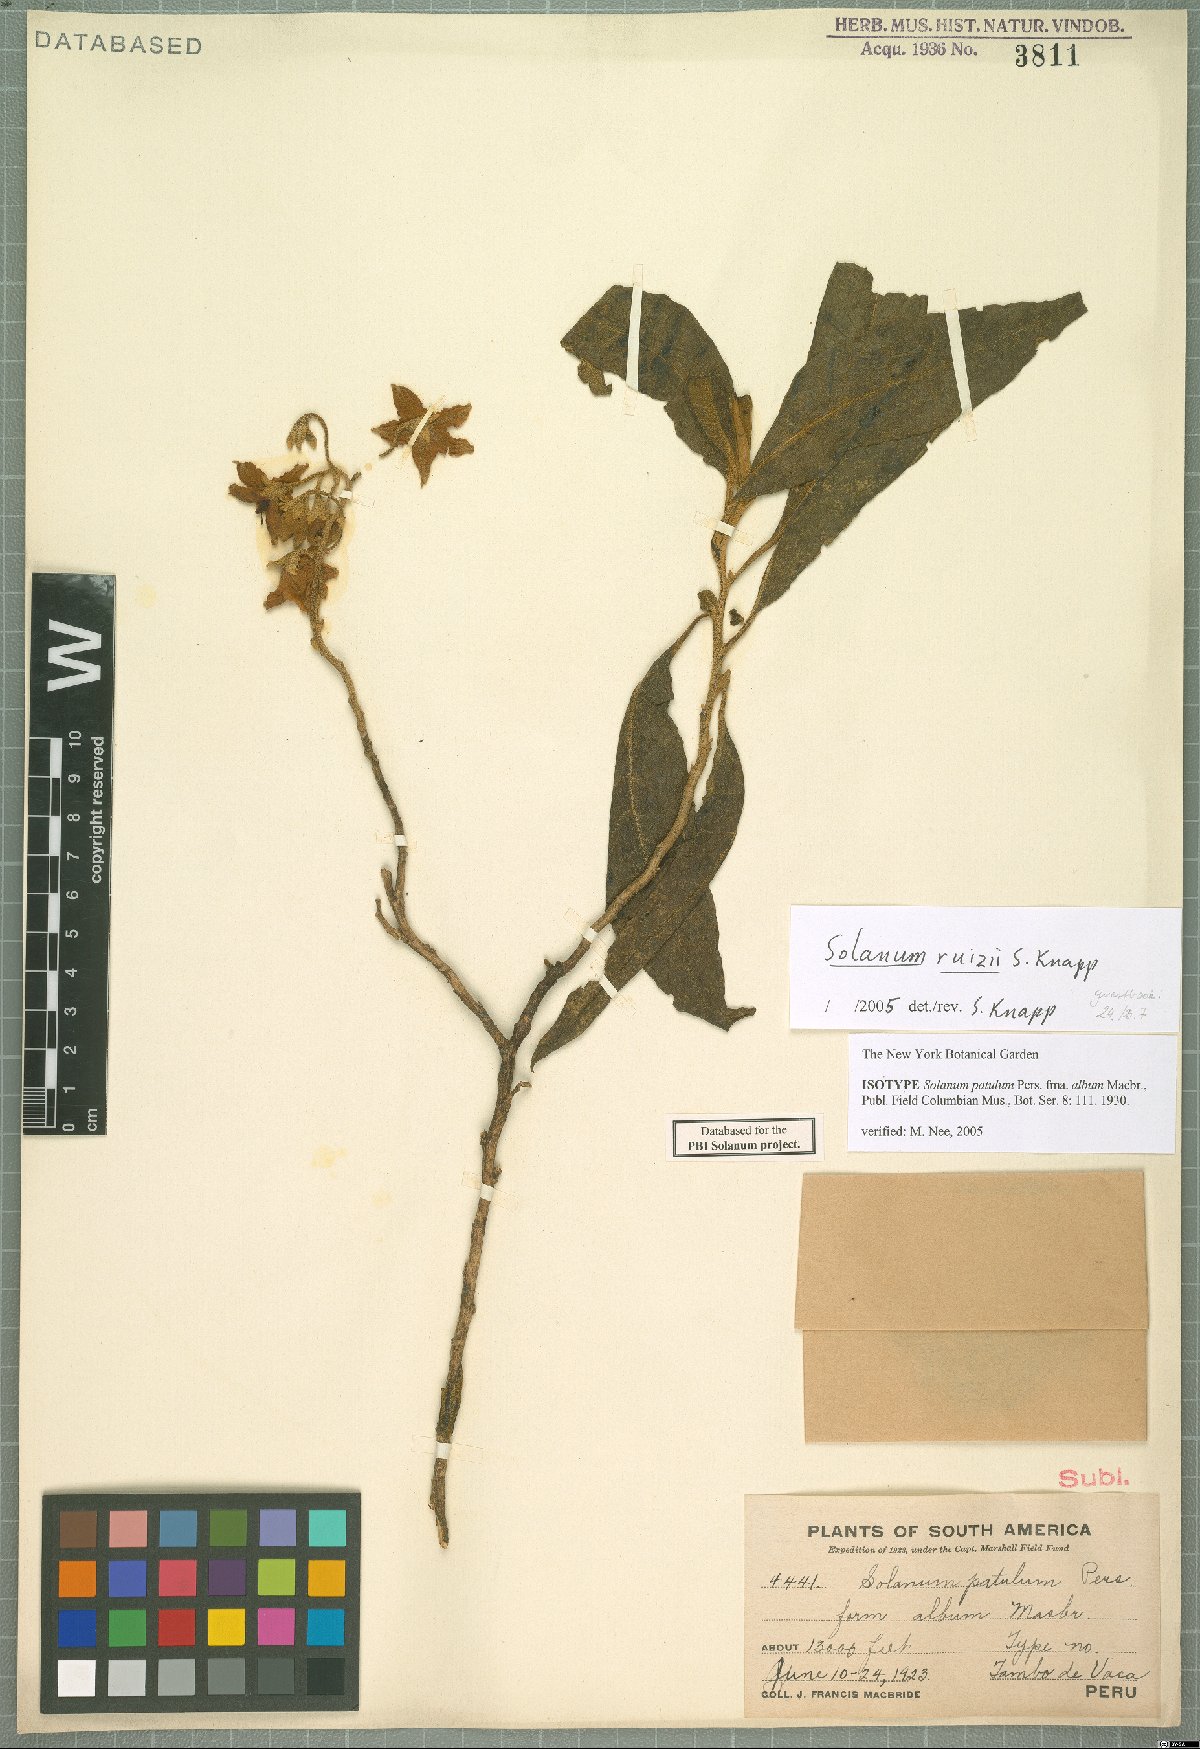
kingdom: Plantae
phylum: Tracheophyta
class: Magnoliopsida
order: Solanales
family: Solanaceae
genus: Solanum
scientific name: Solanum ruizii
